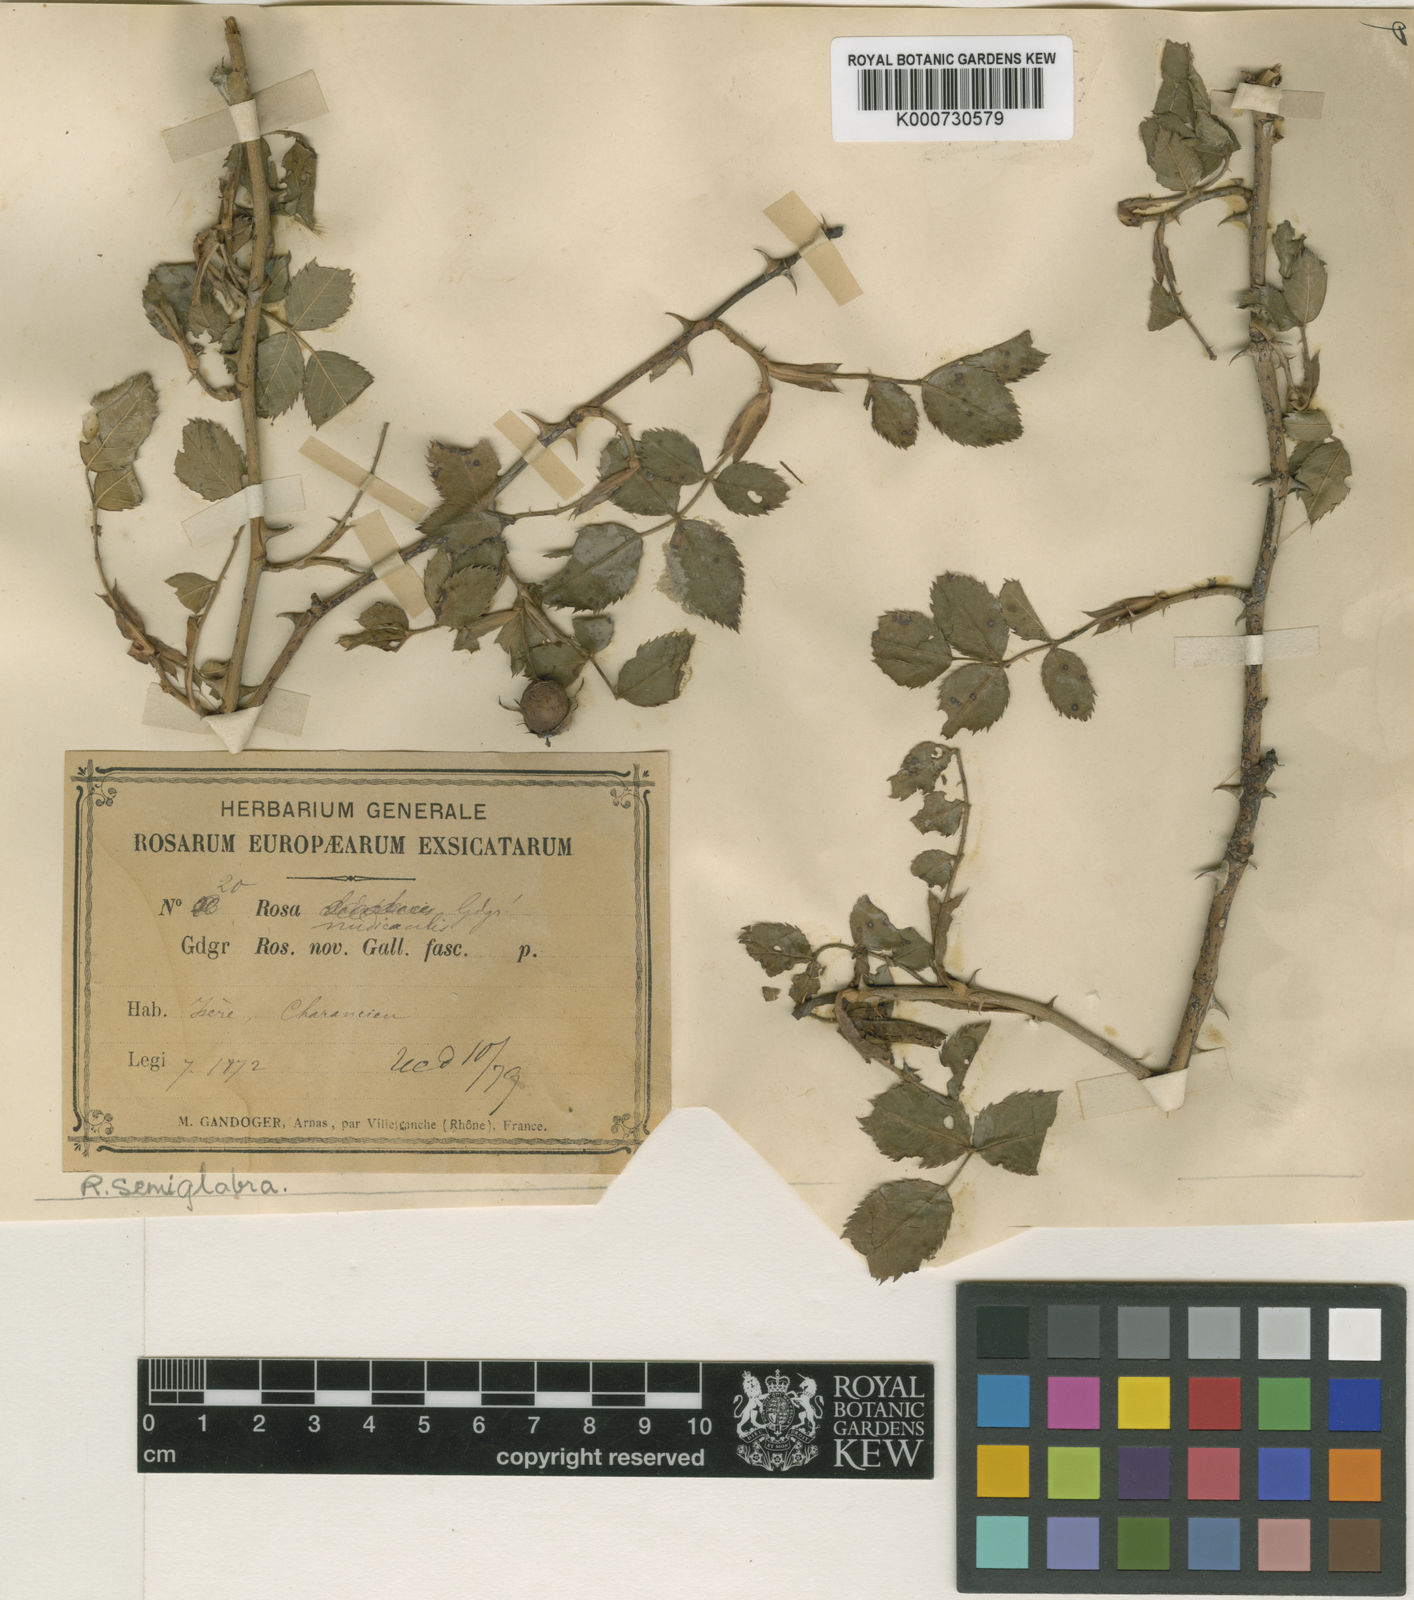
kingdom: Plantae
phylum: Tracheophyta
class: Magnoliopsida
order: Rosales
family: Rosaceae
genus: Rosa
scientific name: Rosa
